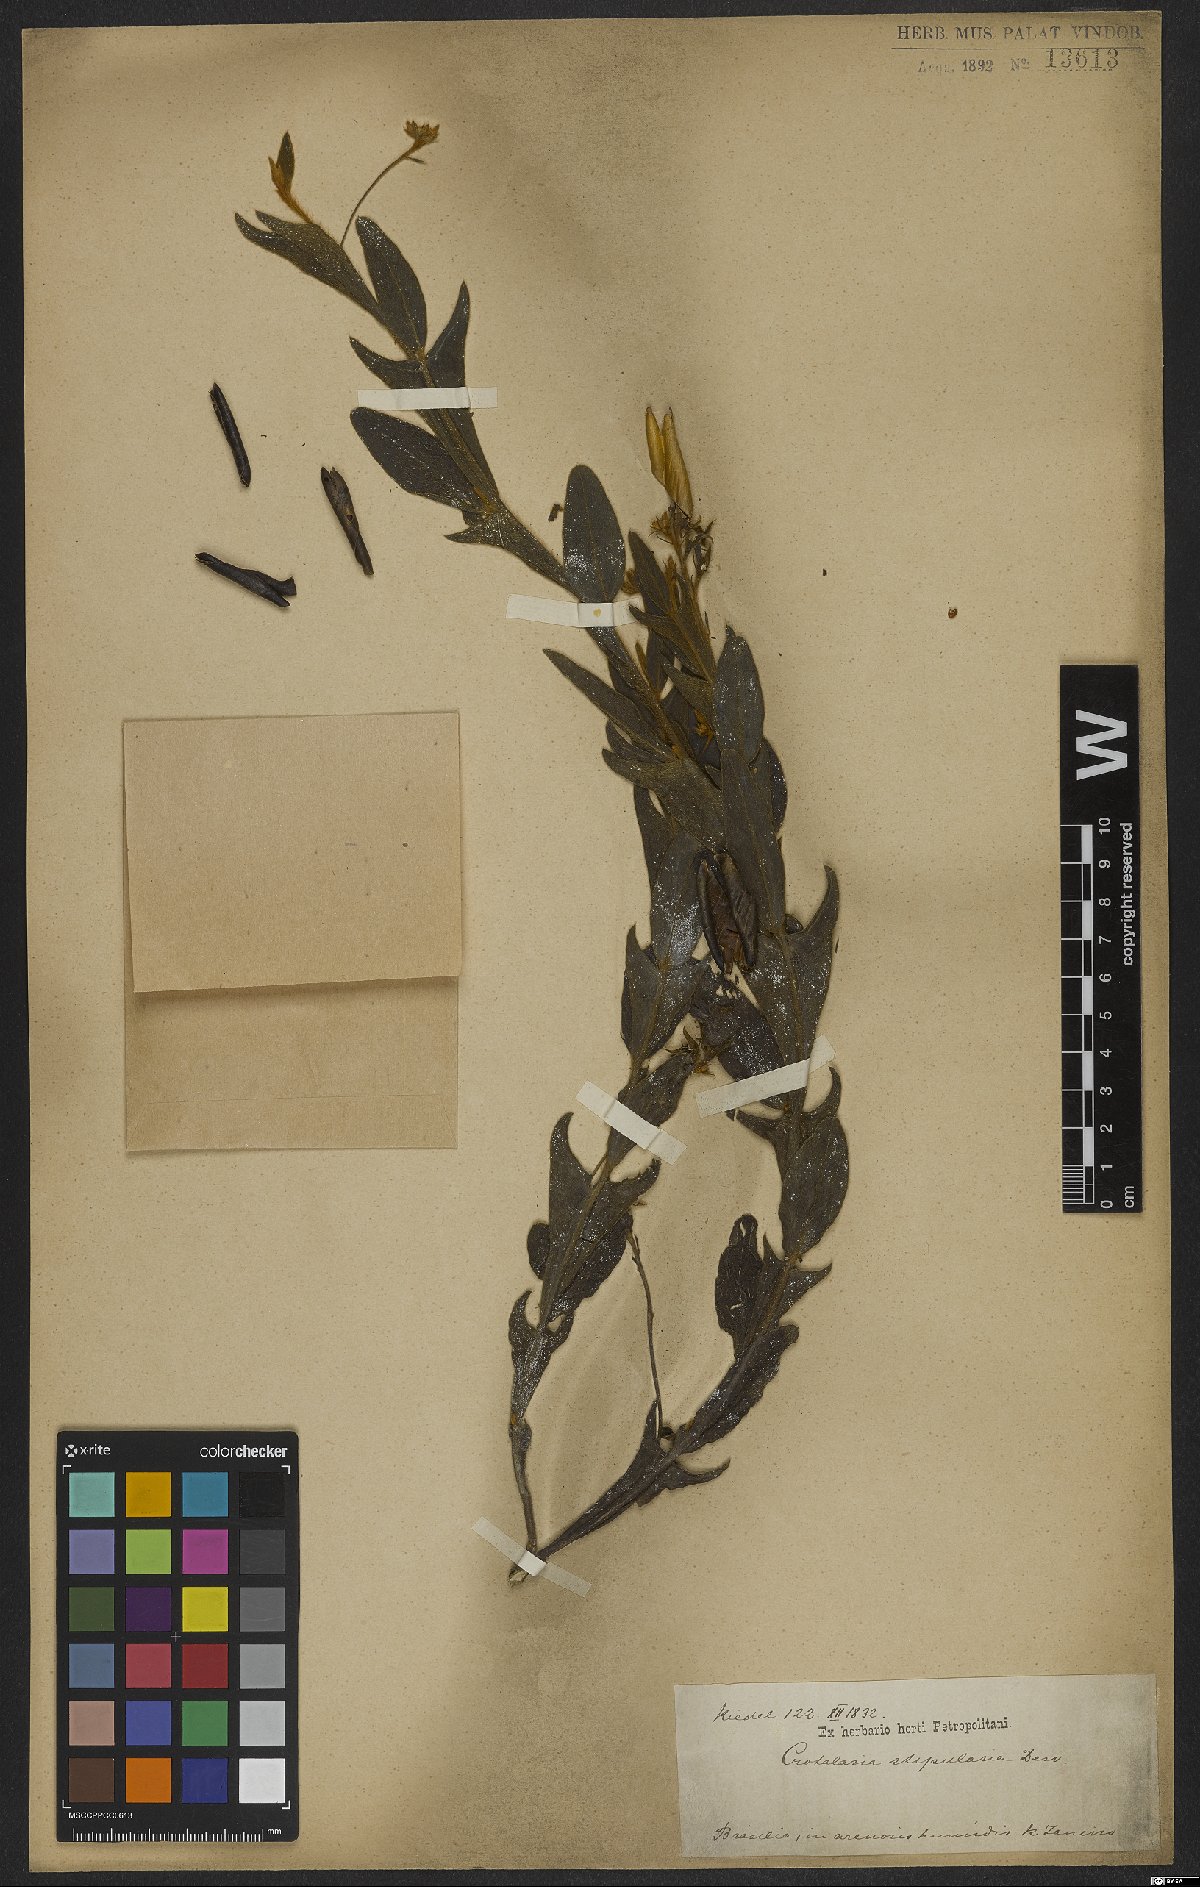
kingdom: Plantae
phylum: Tracheophyta
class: Magnoliopsida
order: Fabales
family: Fabaceae
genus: Crotalaria
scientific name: Crotalaria stipularia
